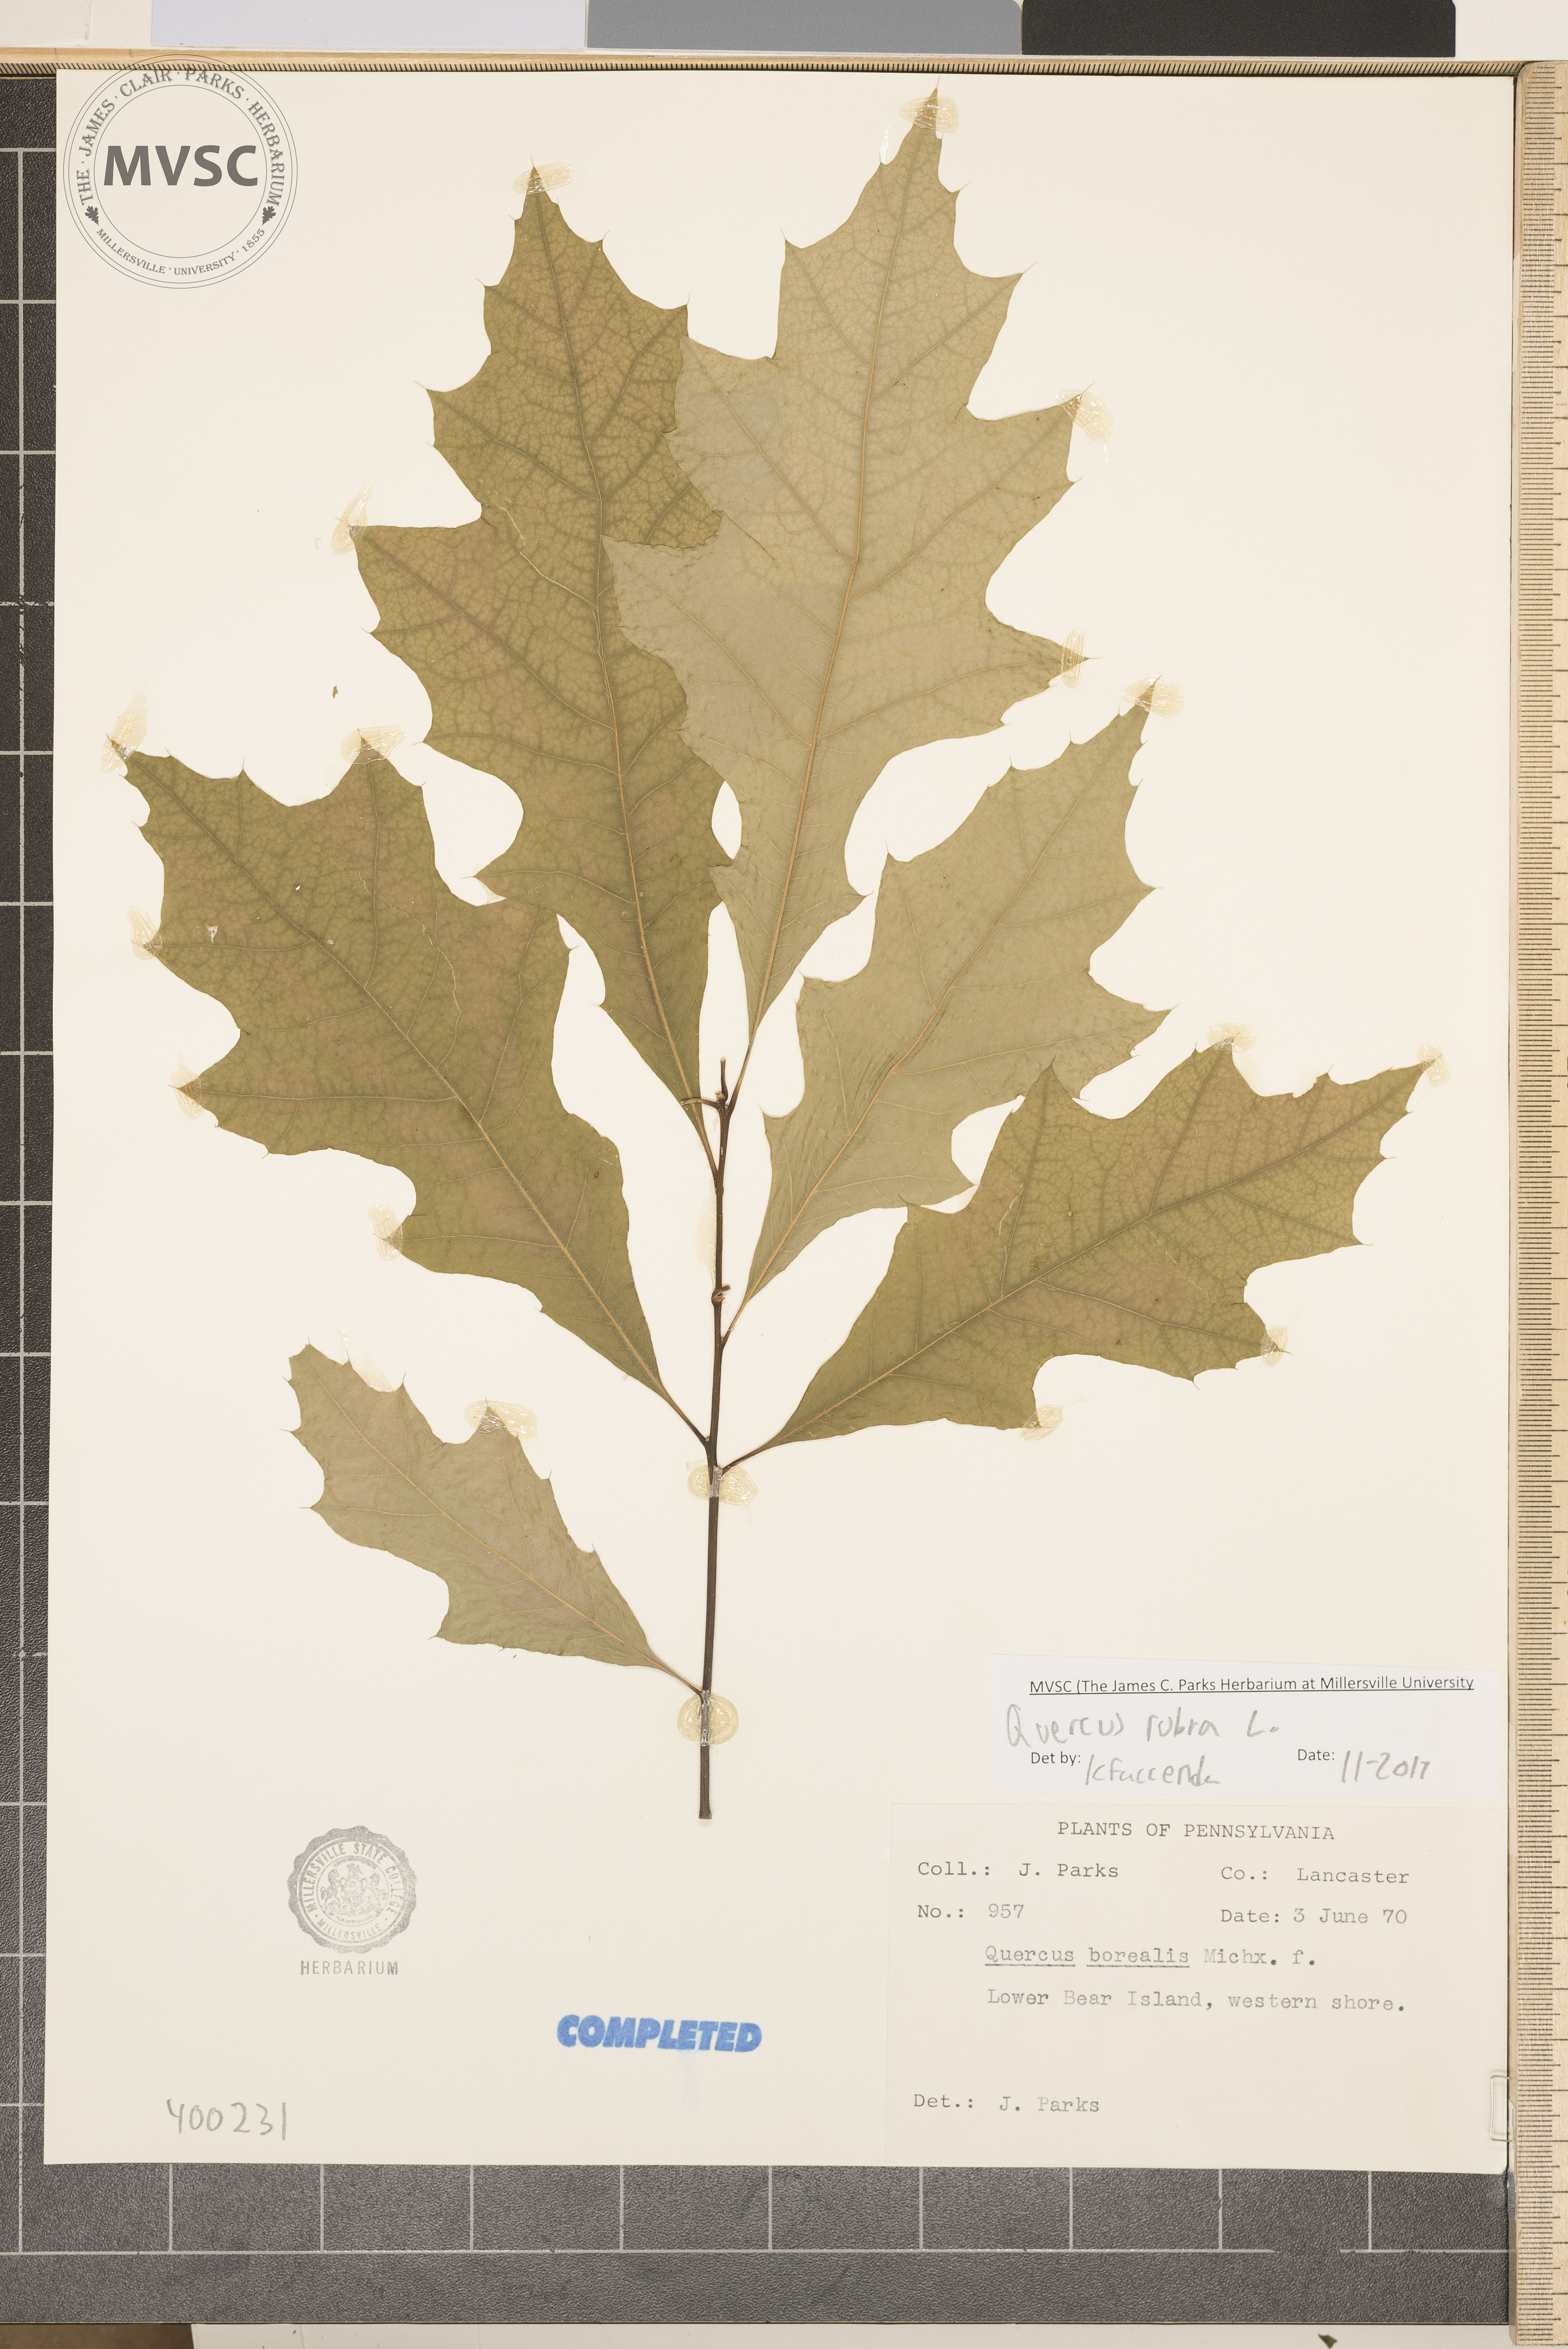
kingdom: Plantae
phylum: Tracheophyta
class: Magnoliopsida
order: Fagales
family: Fagaceae
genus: Quercus
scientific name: Quercus rubra
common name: red oak
